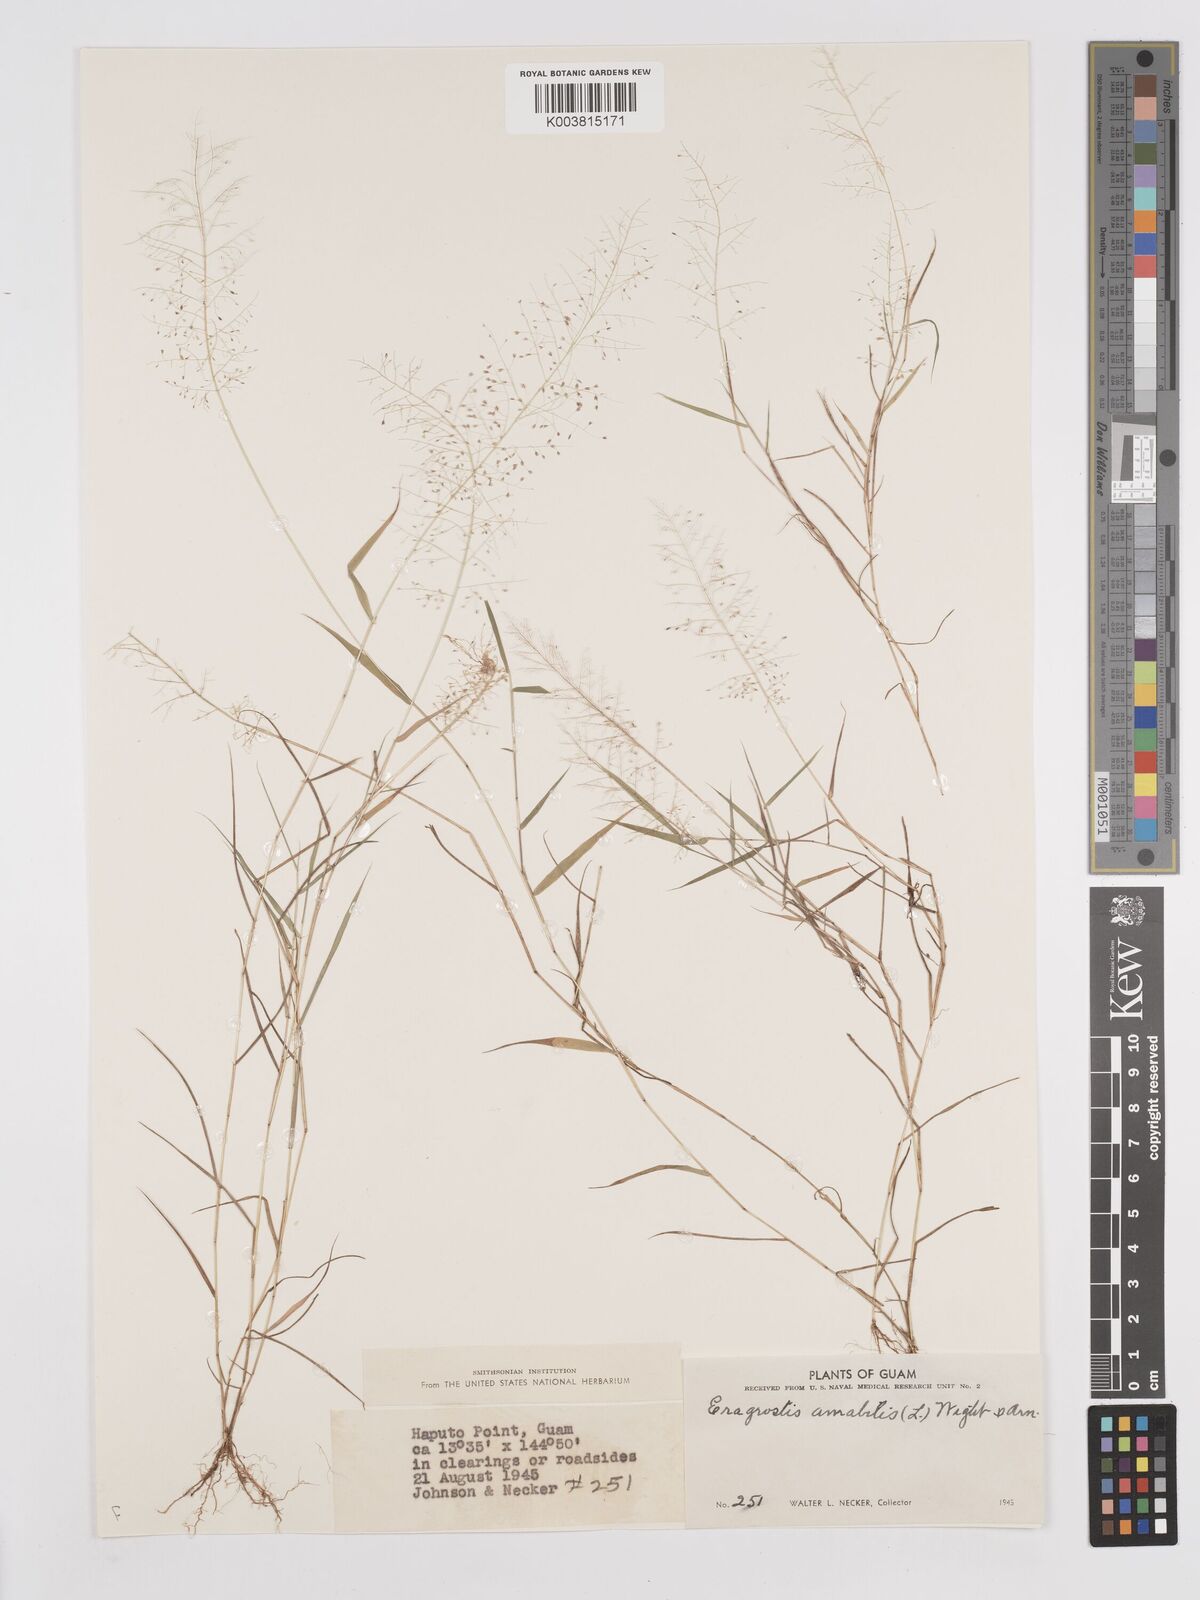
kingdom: Plantae
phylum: Tracheophyta
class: Liliopsida
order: Poales
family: Poaceae
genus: Eragrostis
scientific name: Eragrostis tenella
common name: Japanese lovegrass
